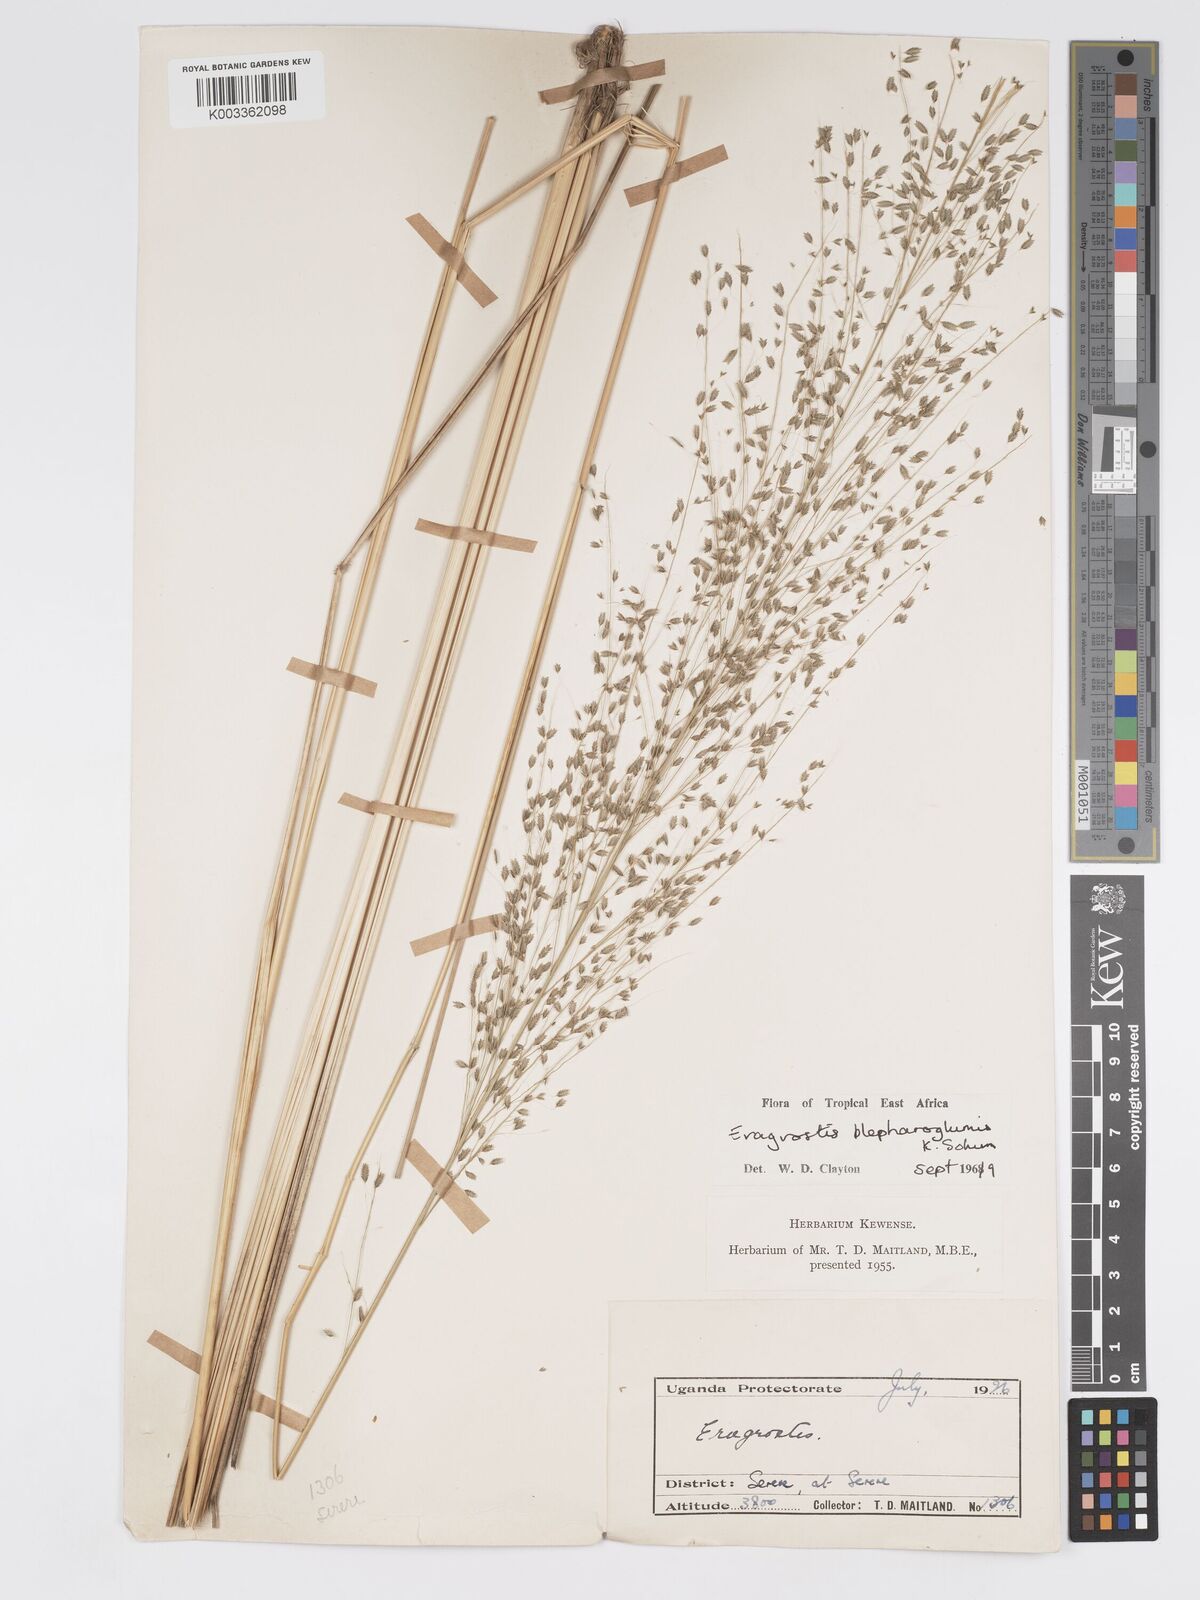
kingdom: Plantae
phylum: Tracheophyta
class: Liliopsida
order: Poales
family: Poaceae
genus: Eragrostis
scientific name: Eragrostis olivacea
